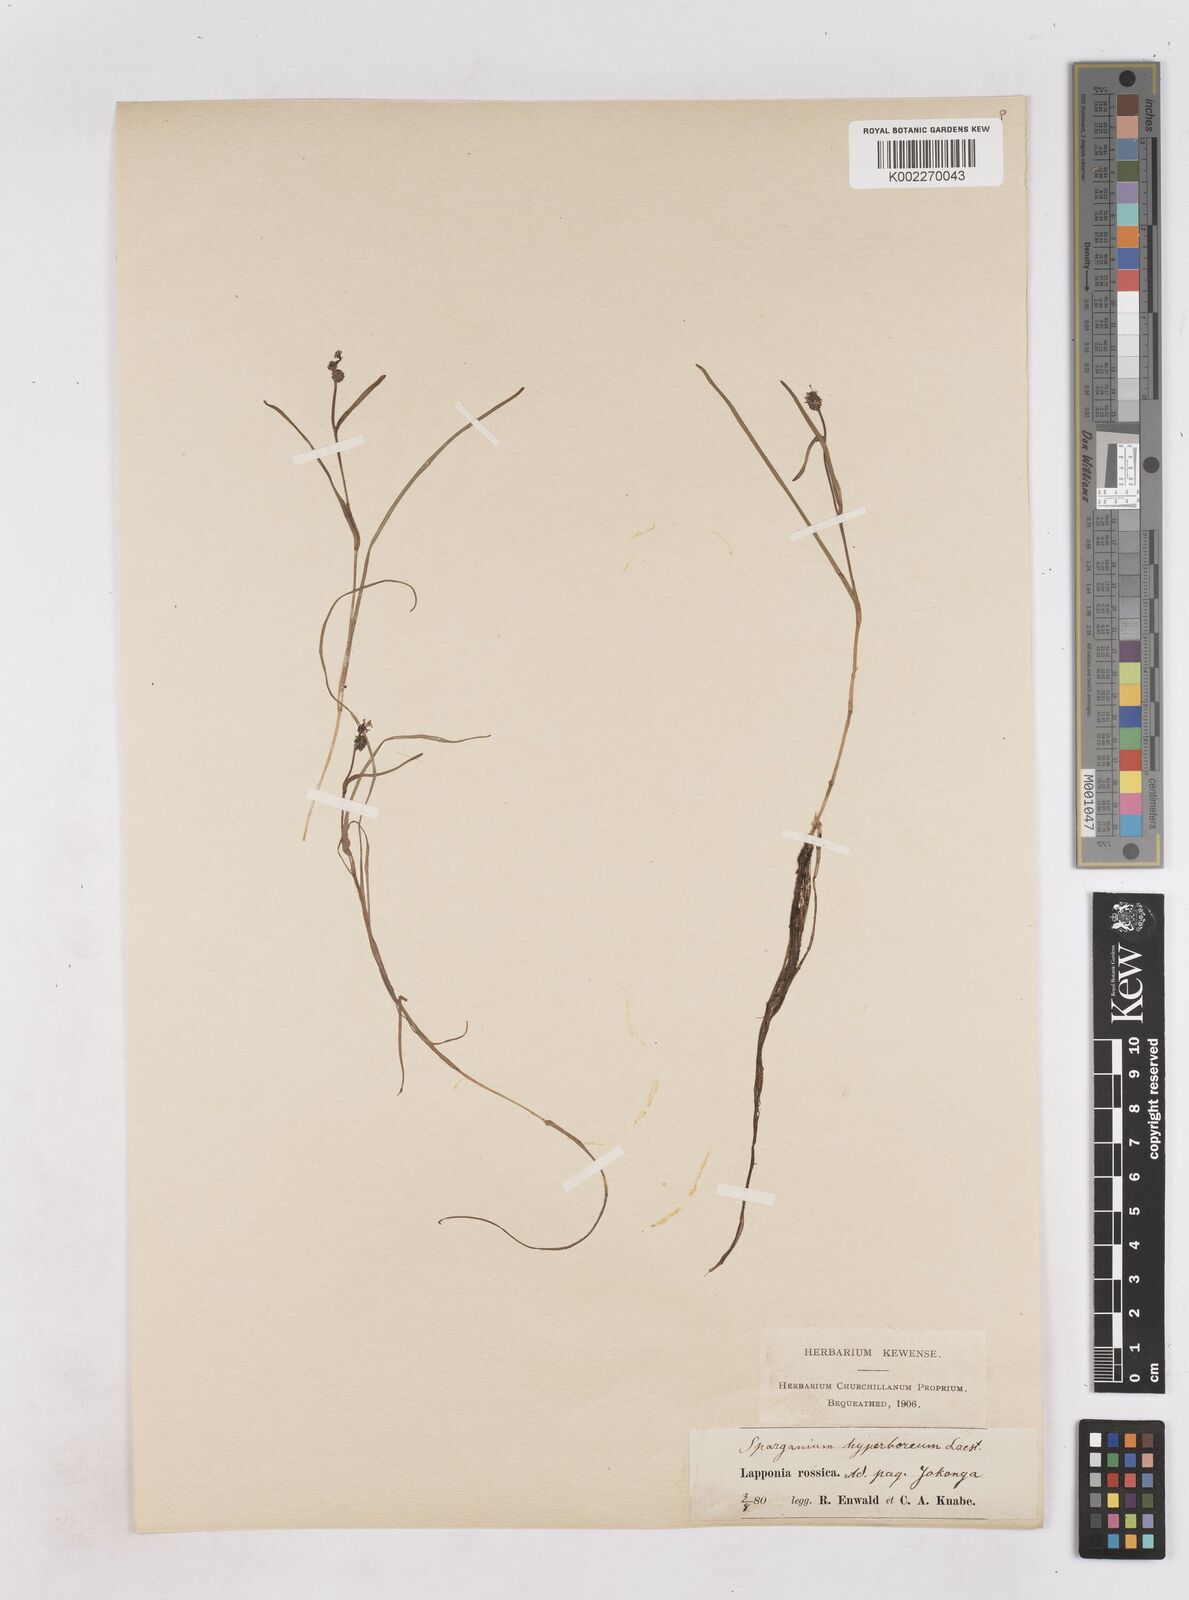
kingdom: Plantae
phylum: Tracheophyta
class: Liliopsida
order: Poales
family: Typhaceae
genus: Sparganium
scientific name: Sparganium hyperboreum
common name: Arctic burreed
